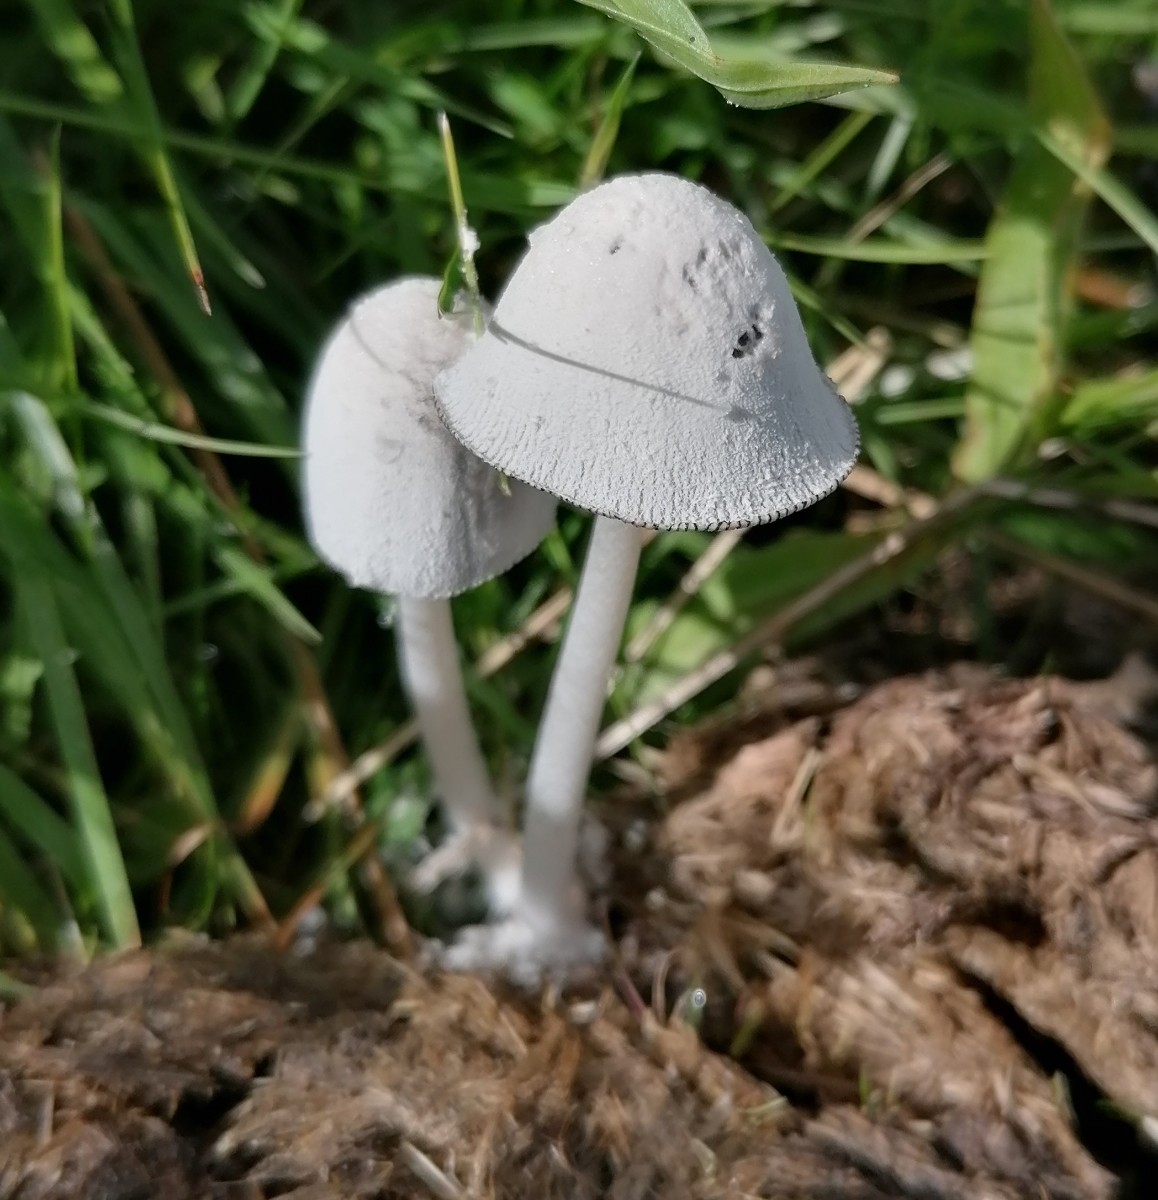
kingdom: Fungi
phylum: Basidiomycota
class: Agaricomycetes
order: Agaricales
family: Psathyrellaceae
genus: Coprinopsis
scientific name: Coprinopsis nivea
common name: snehvid blækhat
